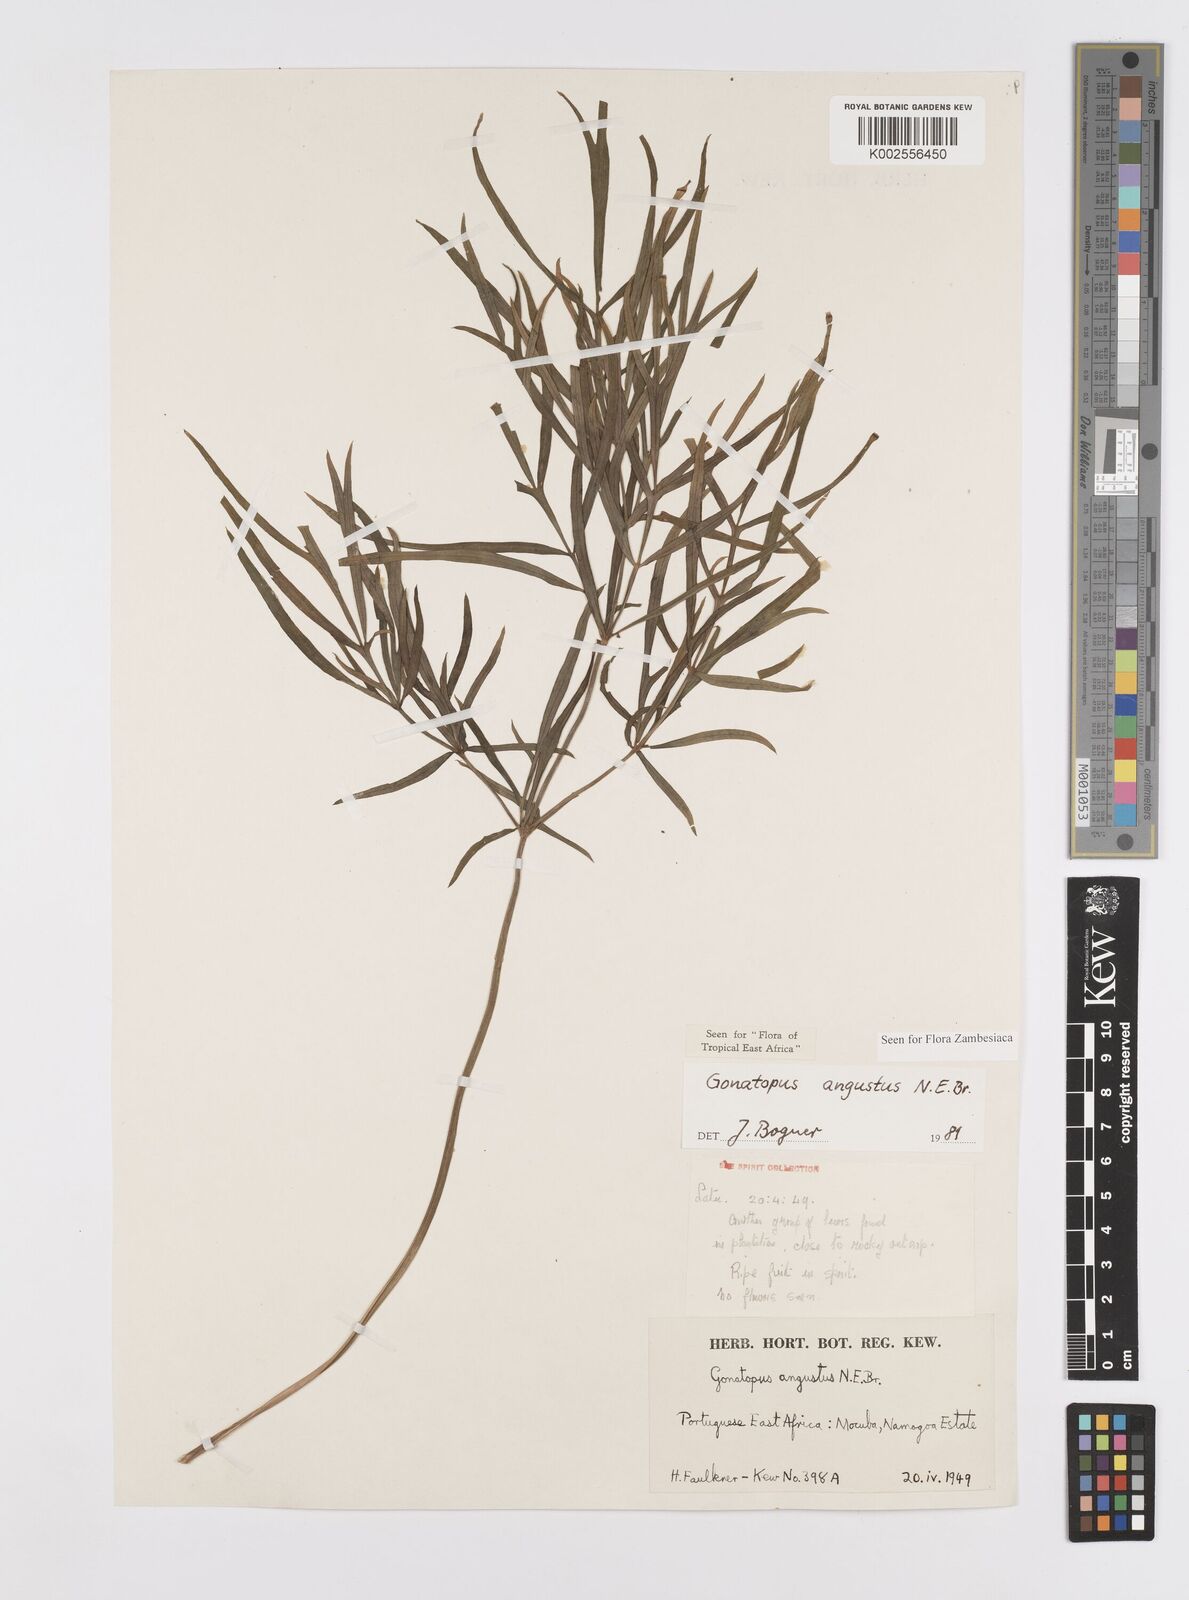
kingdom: Plantae
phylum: Tracheophyta
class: Liliopsida
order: Alismatales
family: Araceae
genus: Gonatopus
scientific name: Gonatopus angustus
